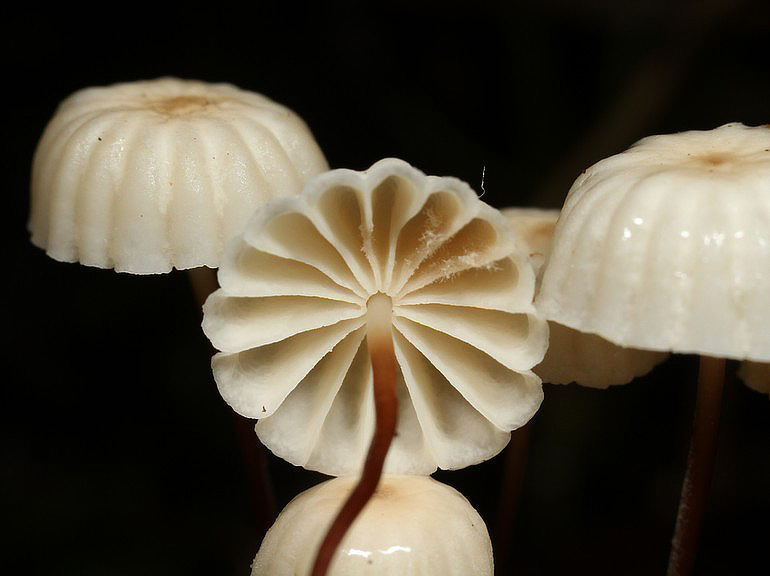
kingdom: Fungi
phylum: Basidiomycota
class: Agaricomycetes
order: Agaricales
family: Marasmiaceae
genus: Marasmius
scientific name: Marasmius rotula
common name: hjul-bruskhat
